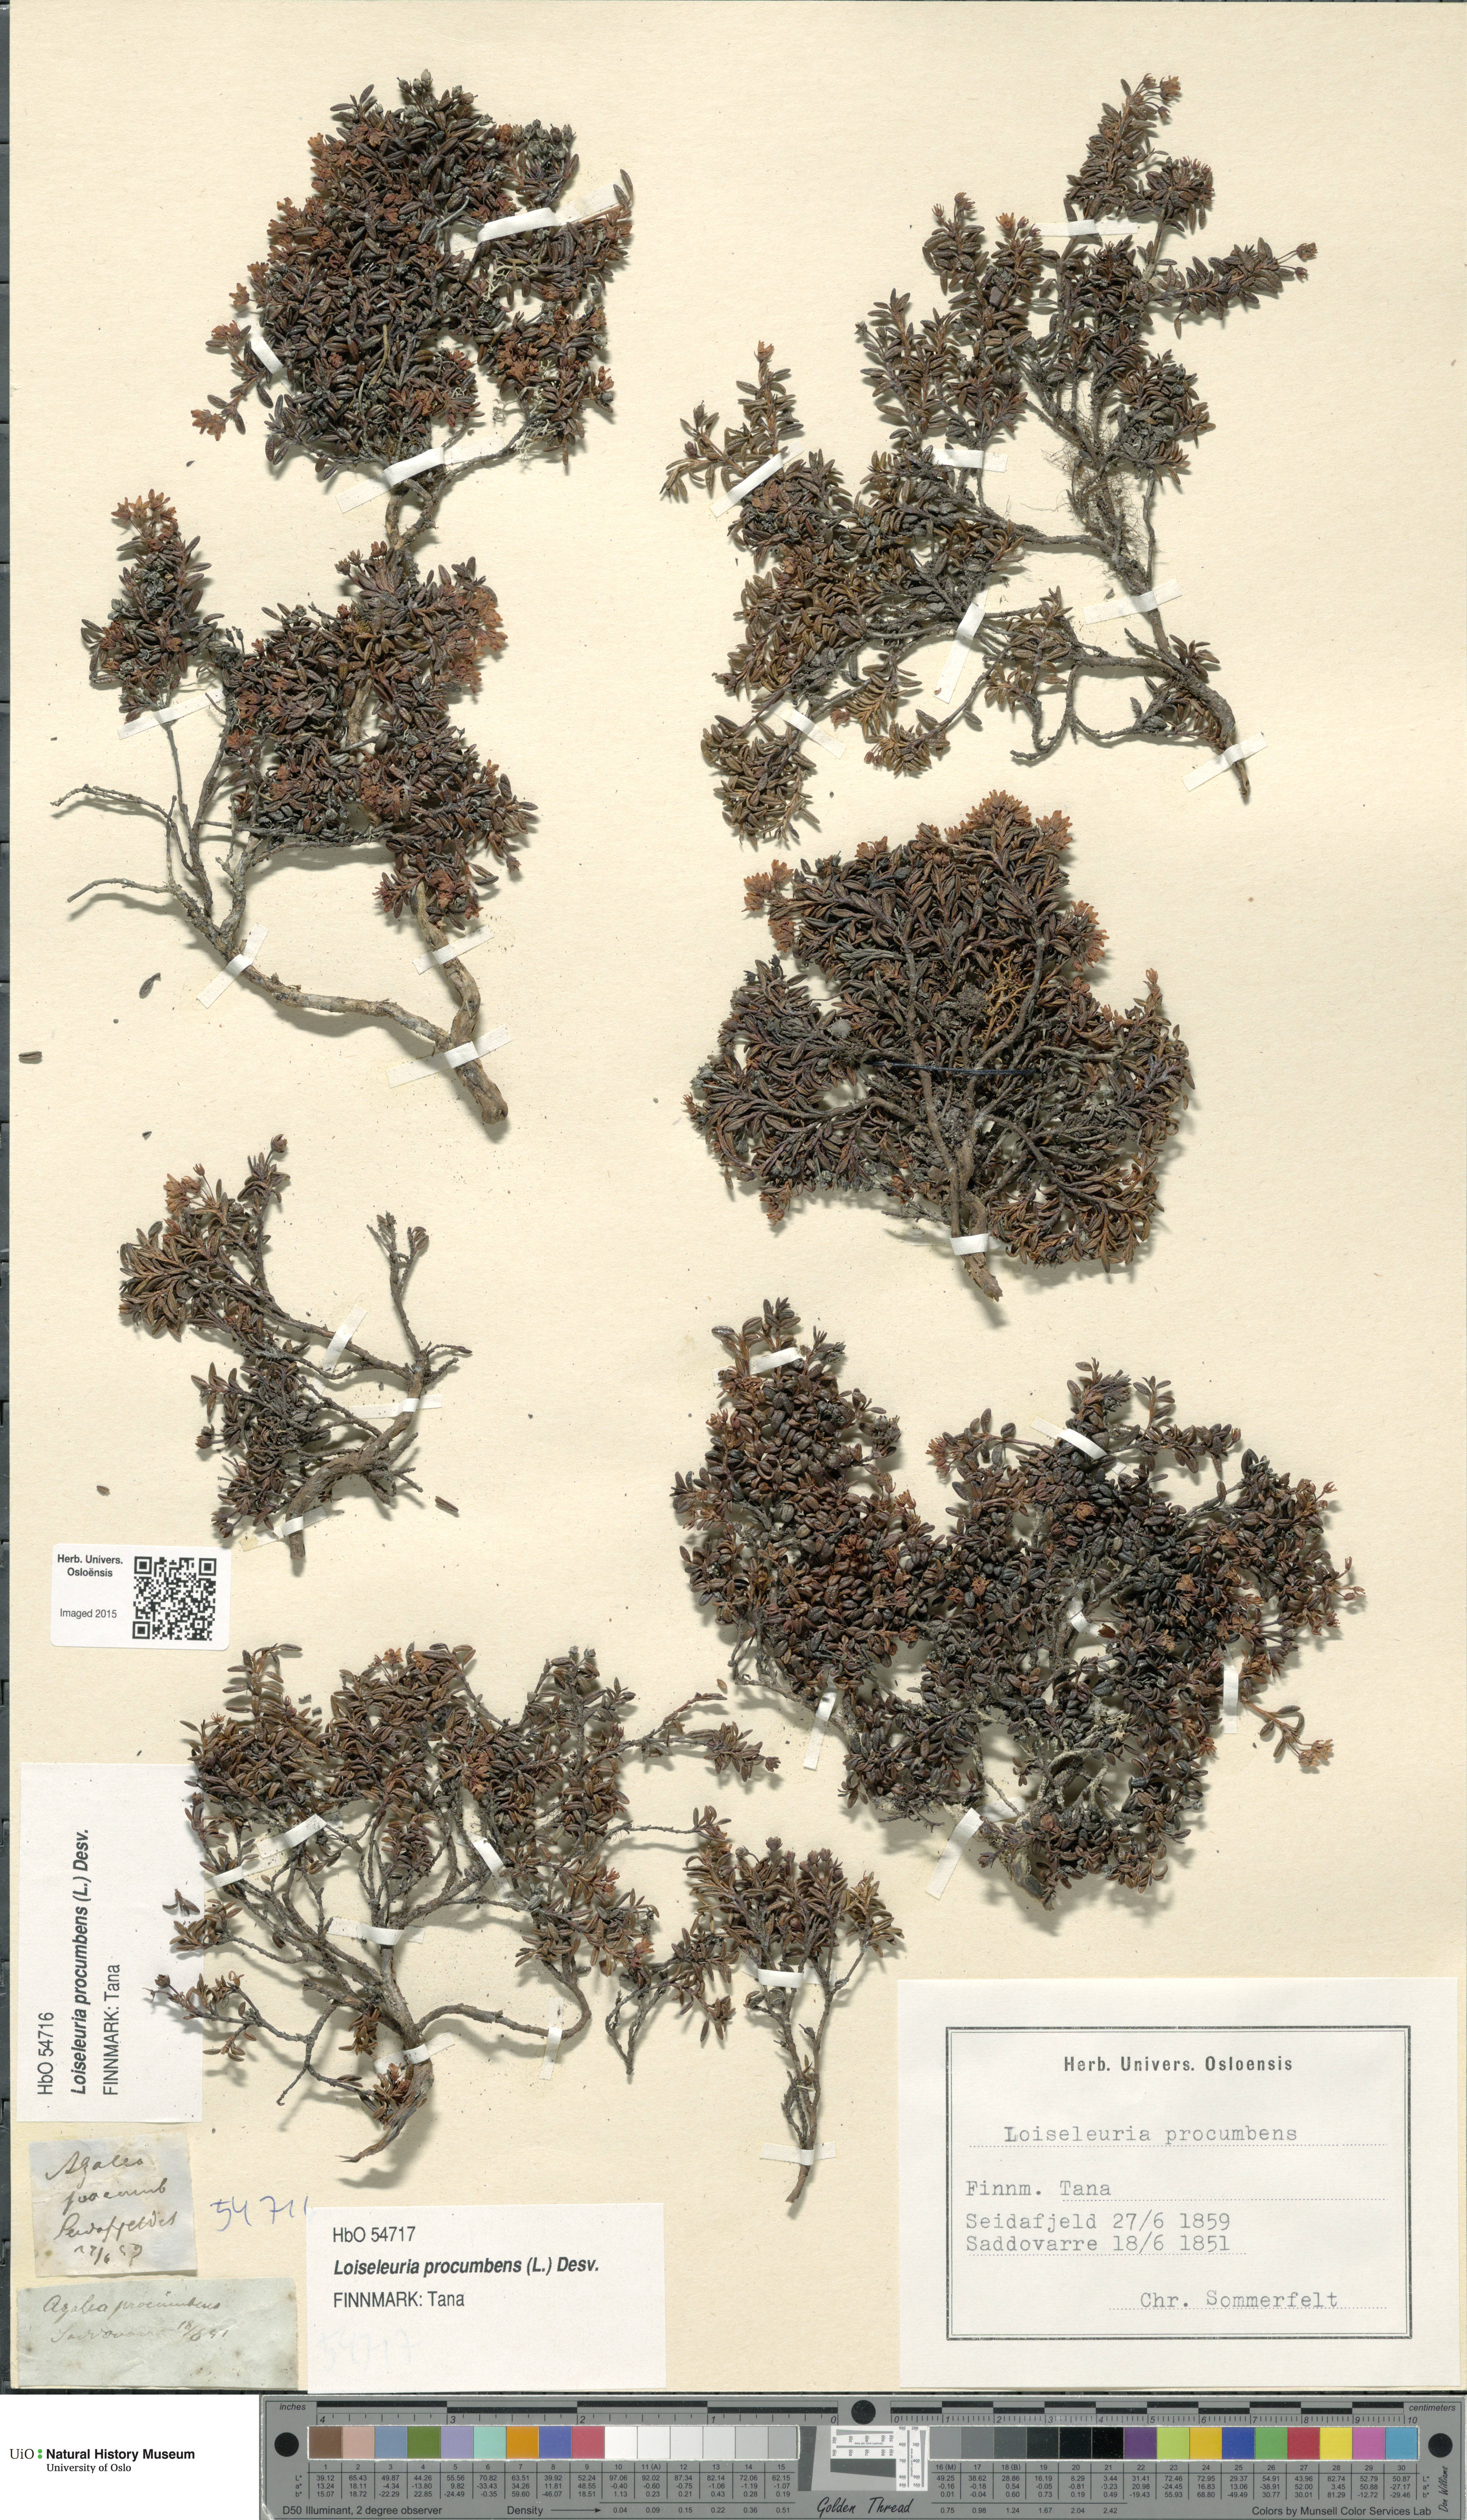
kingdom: Plantae
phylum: Tracheophyta
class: Magnoliopsida
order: Ericales
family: Ericaceae
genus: Kalmia
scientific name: Kalmia procumbens
